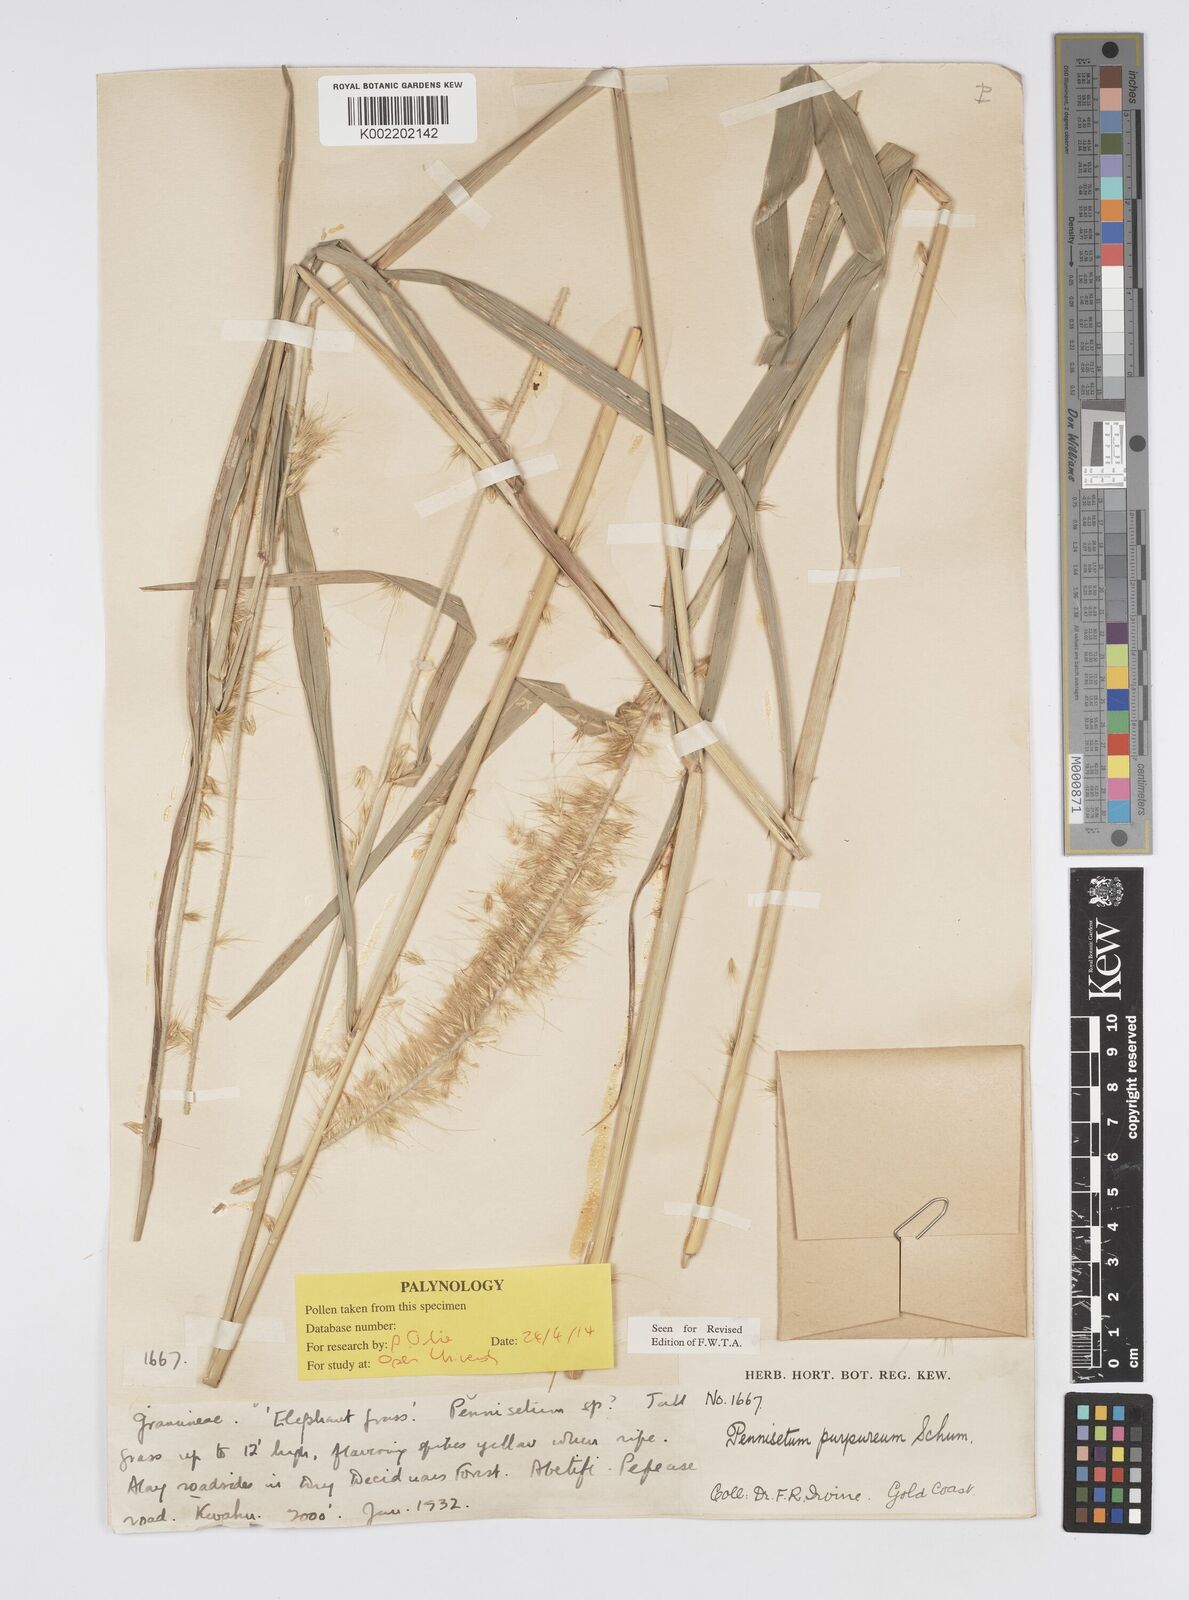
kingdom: Plantae
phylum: Tracheophyta
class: Liliopsida
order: Poales
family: Poaceae
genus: Cenchrus
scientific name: Cenchrus purpureus
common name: Elephant grass
